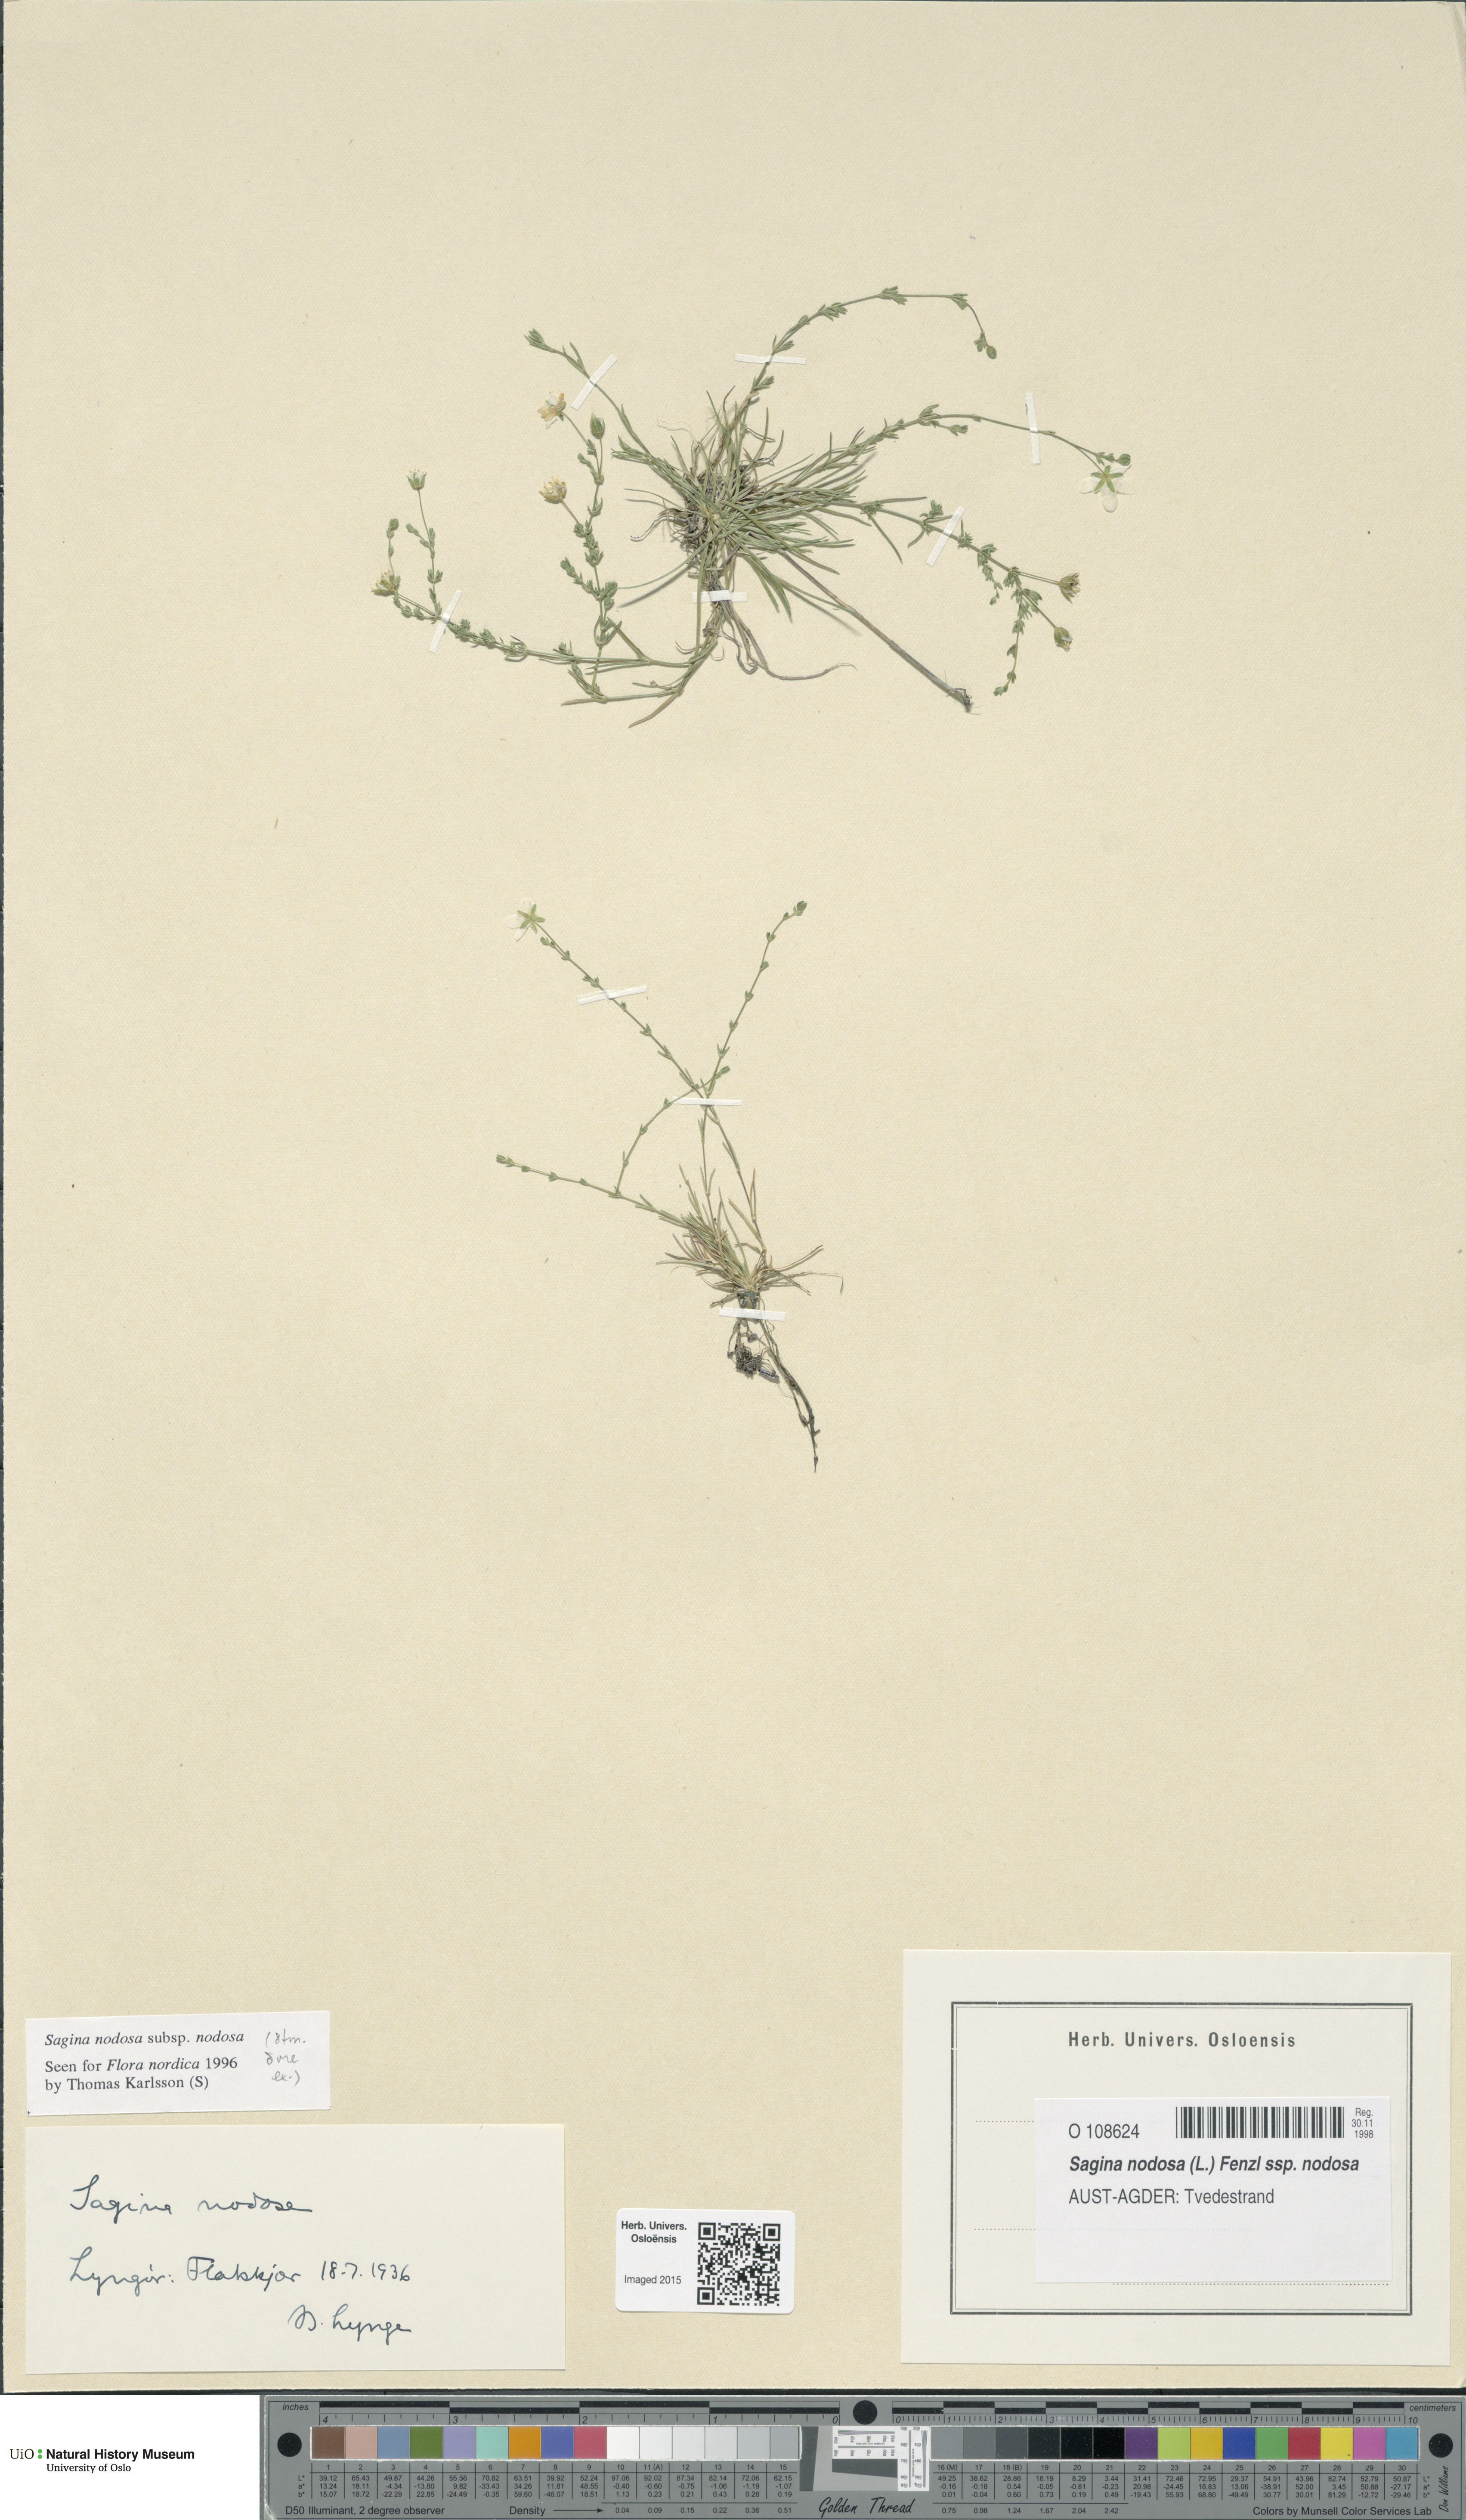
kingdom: Plantae
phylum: Tracheophyta
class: Magnoliopsida
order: Caryophyllales
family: Caryophyllaceae
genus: Sagina
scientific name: Sagina nodosa
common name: Knotted pearlwort
